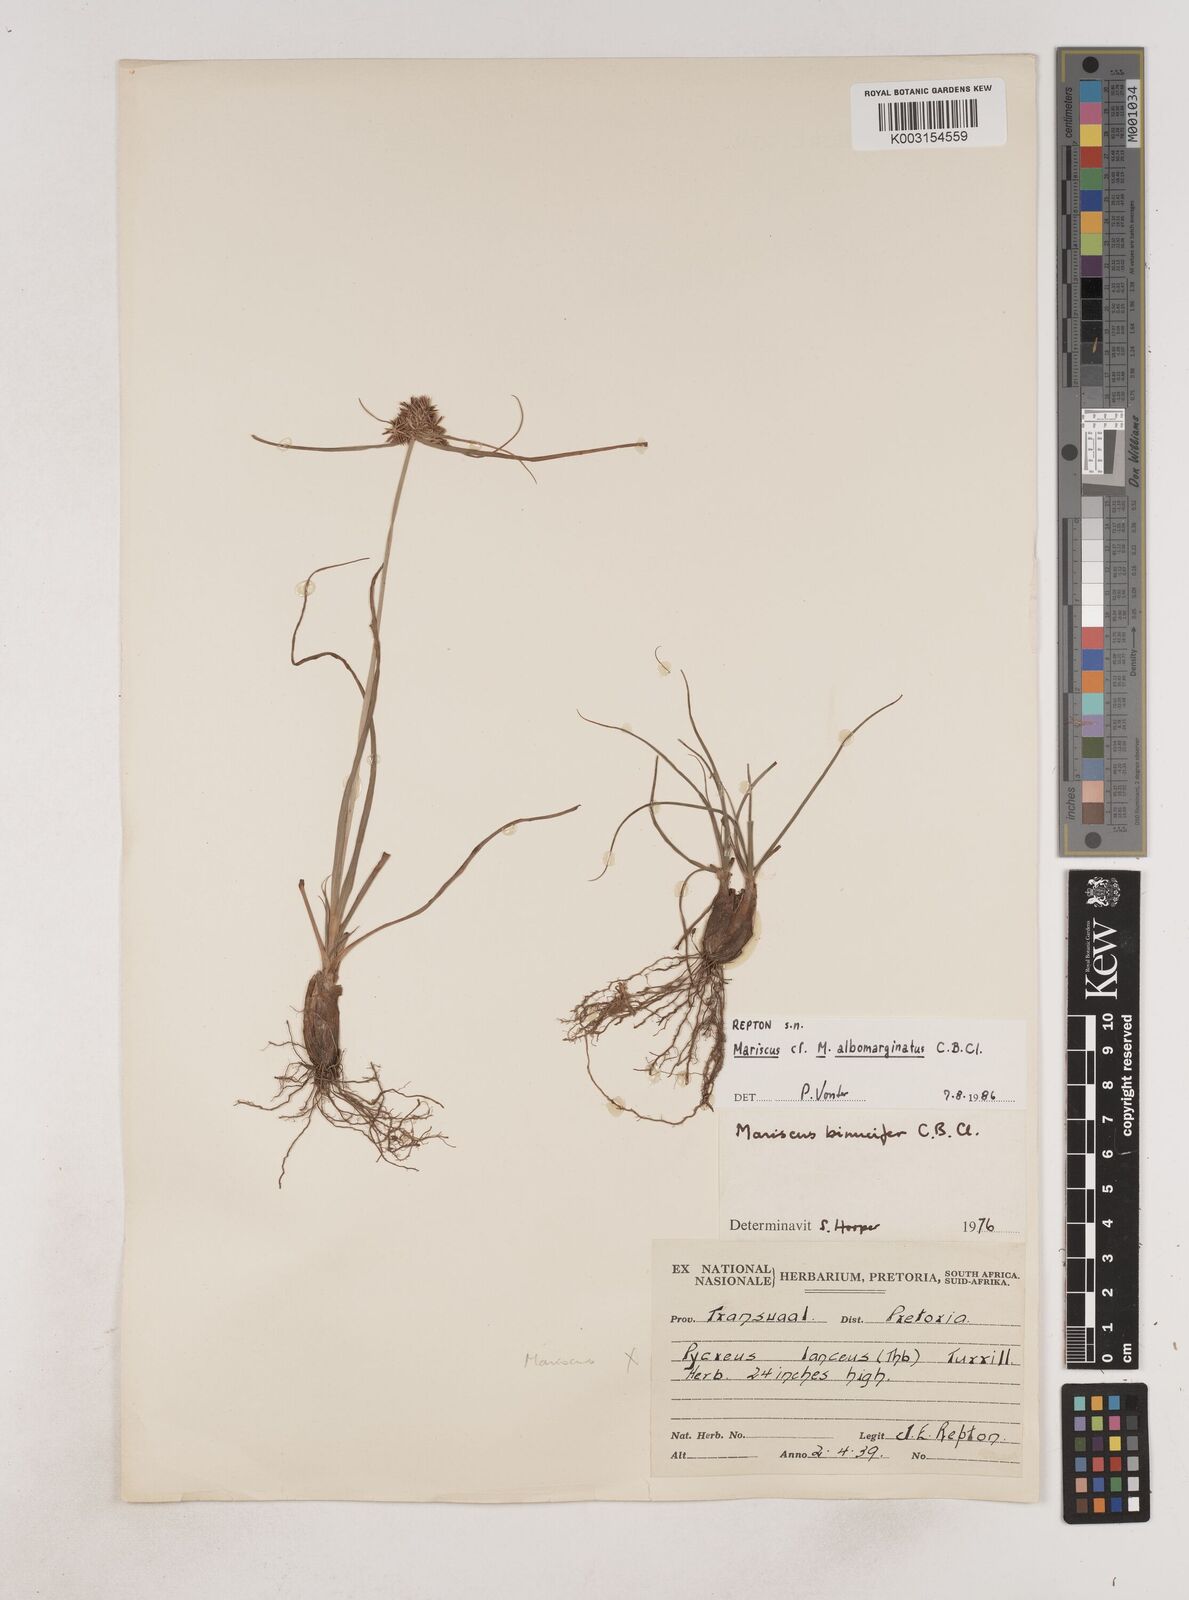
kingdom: Plantae
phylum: Tracheophyta
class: Liliopsida
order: Poales
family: Cyperaceae
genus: Cyperus
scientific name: Cyperus indecorus
